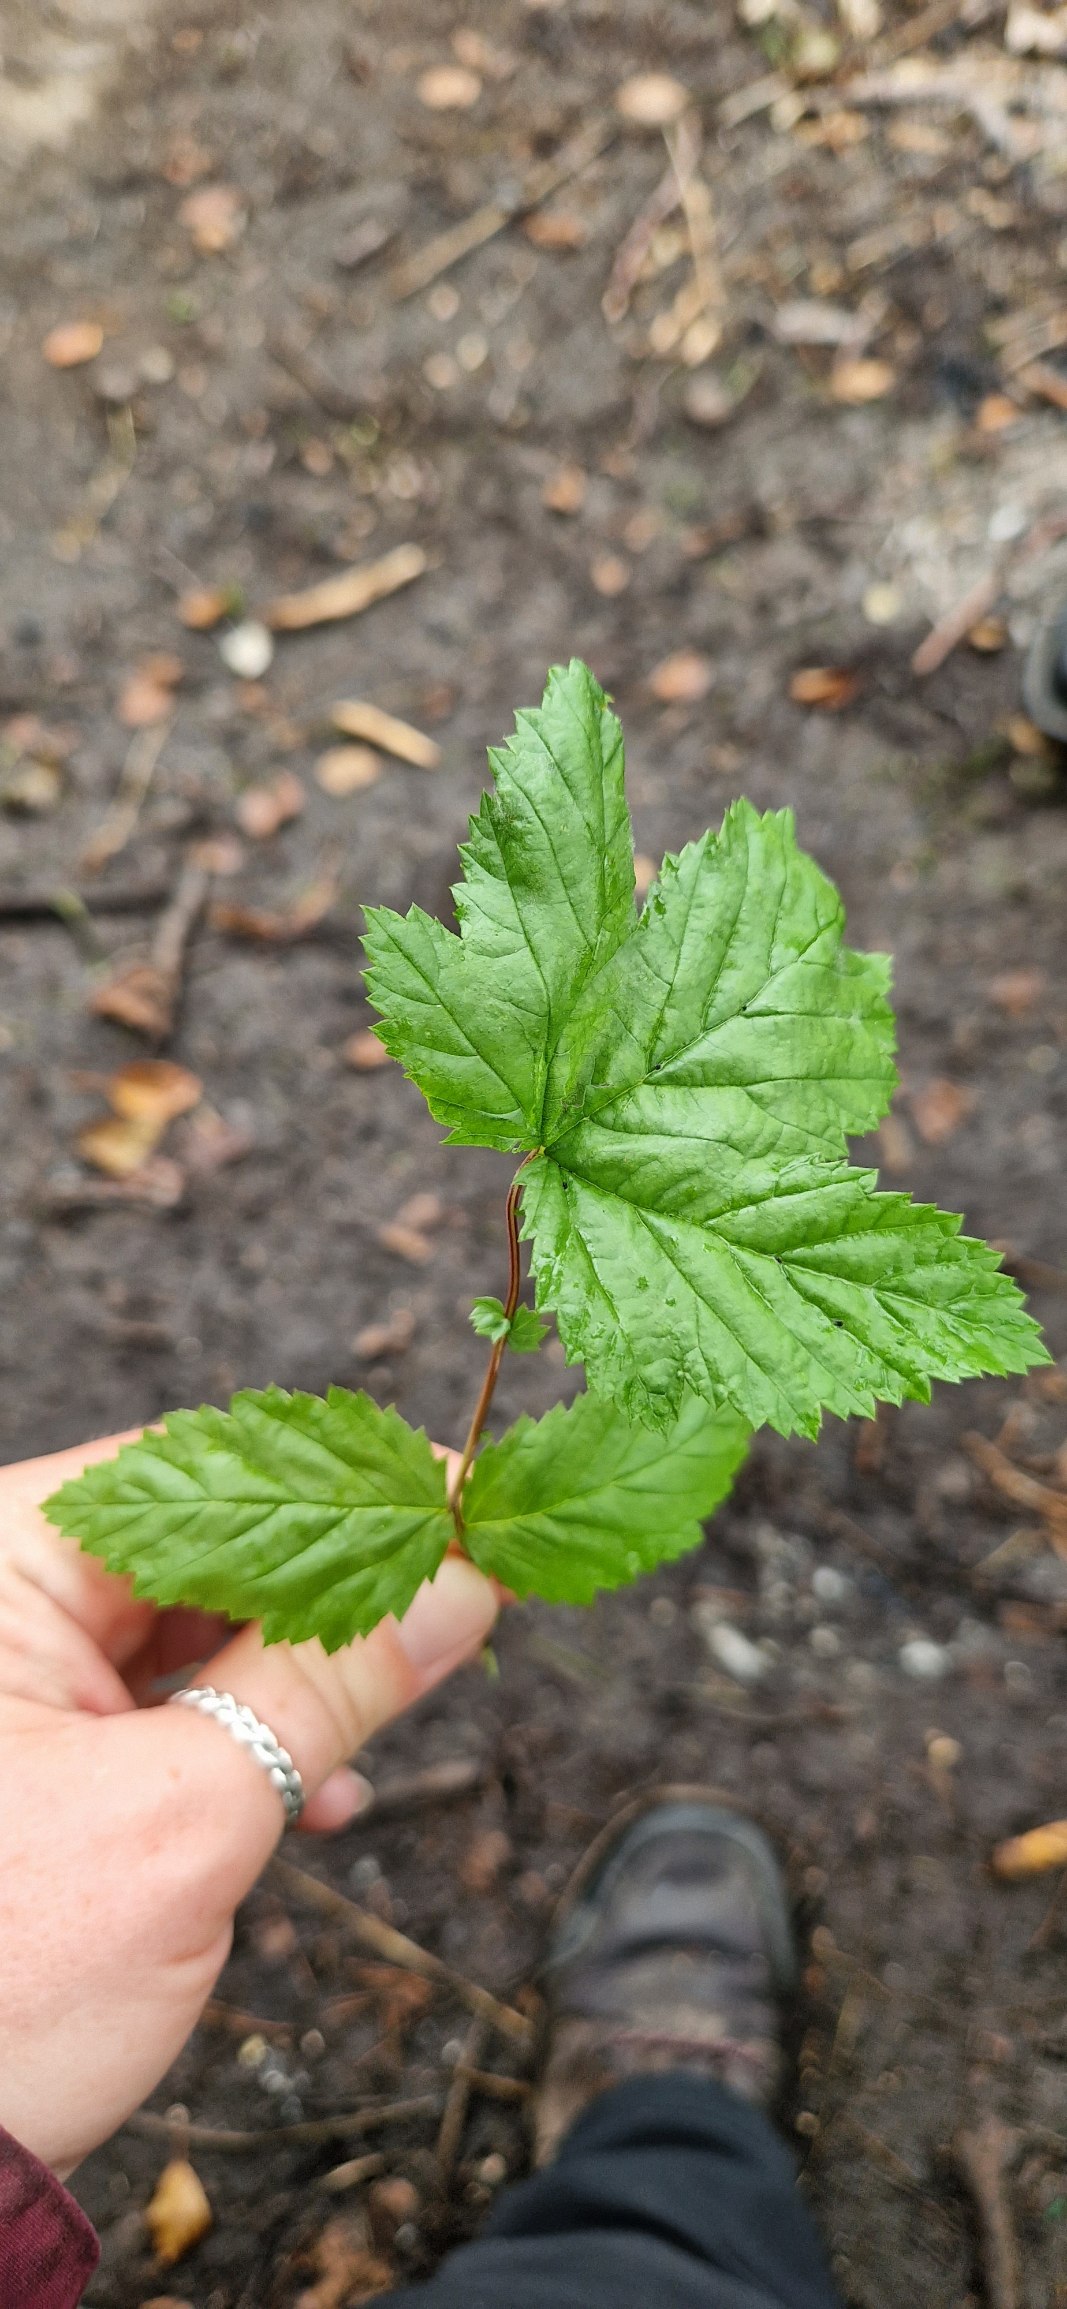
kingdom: Plantae
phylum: Tracheophyta
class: Magnoliopsida
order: Rosales
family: Rosaceae
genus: Filipendula
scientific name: Filipendula ulmaria
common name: Almindelig mjødurt
